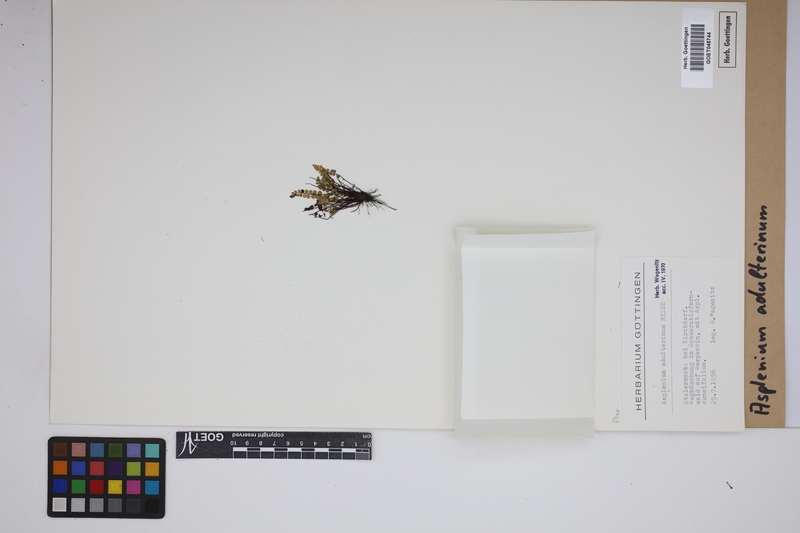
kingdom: Plantae
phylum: Tracheophyta
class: Polypodiopsida
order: Polypodiales
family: Aspleniaceae
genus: Asplenium
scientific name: Asplenium adulterinum
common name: Adulterated spleenwort
